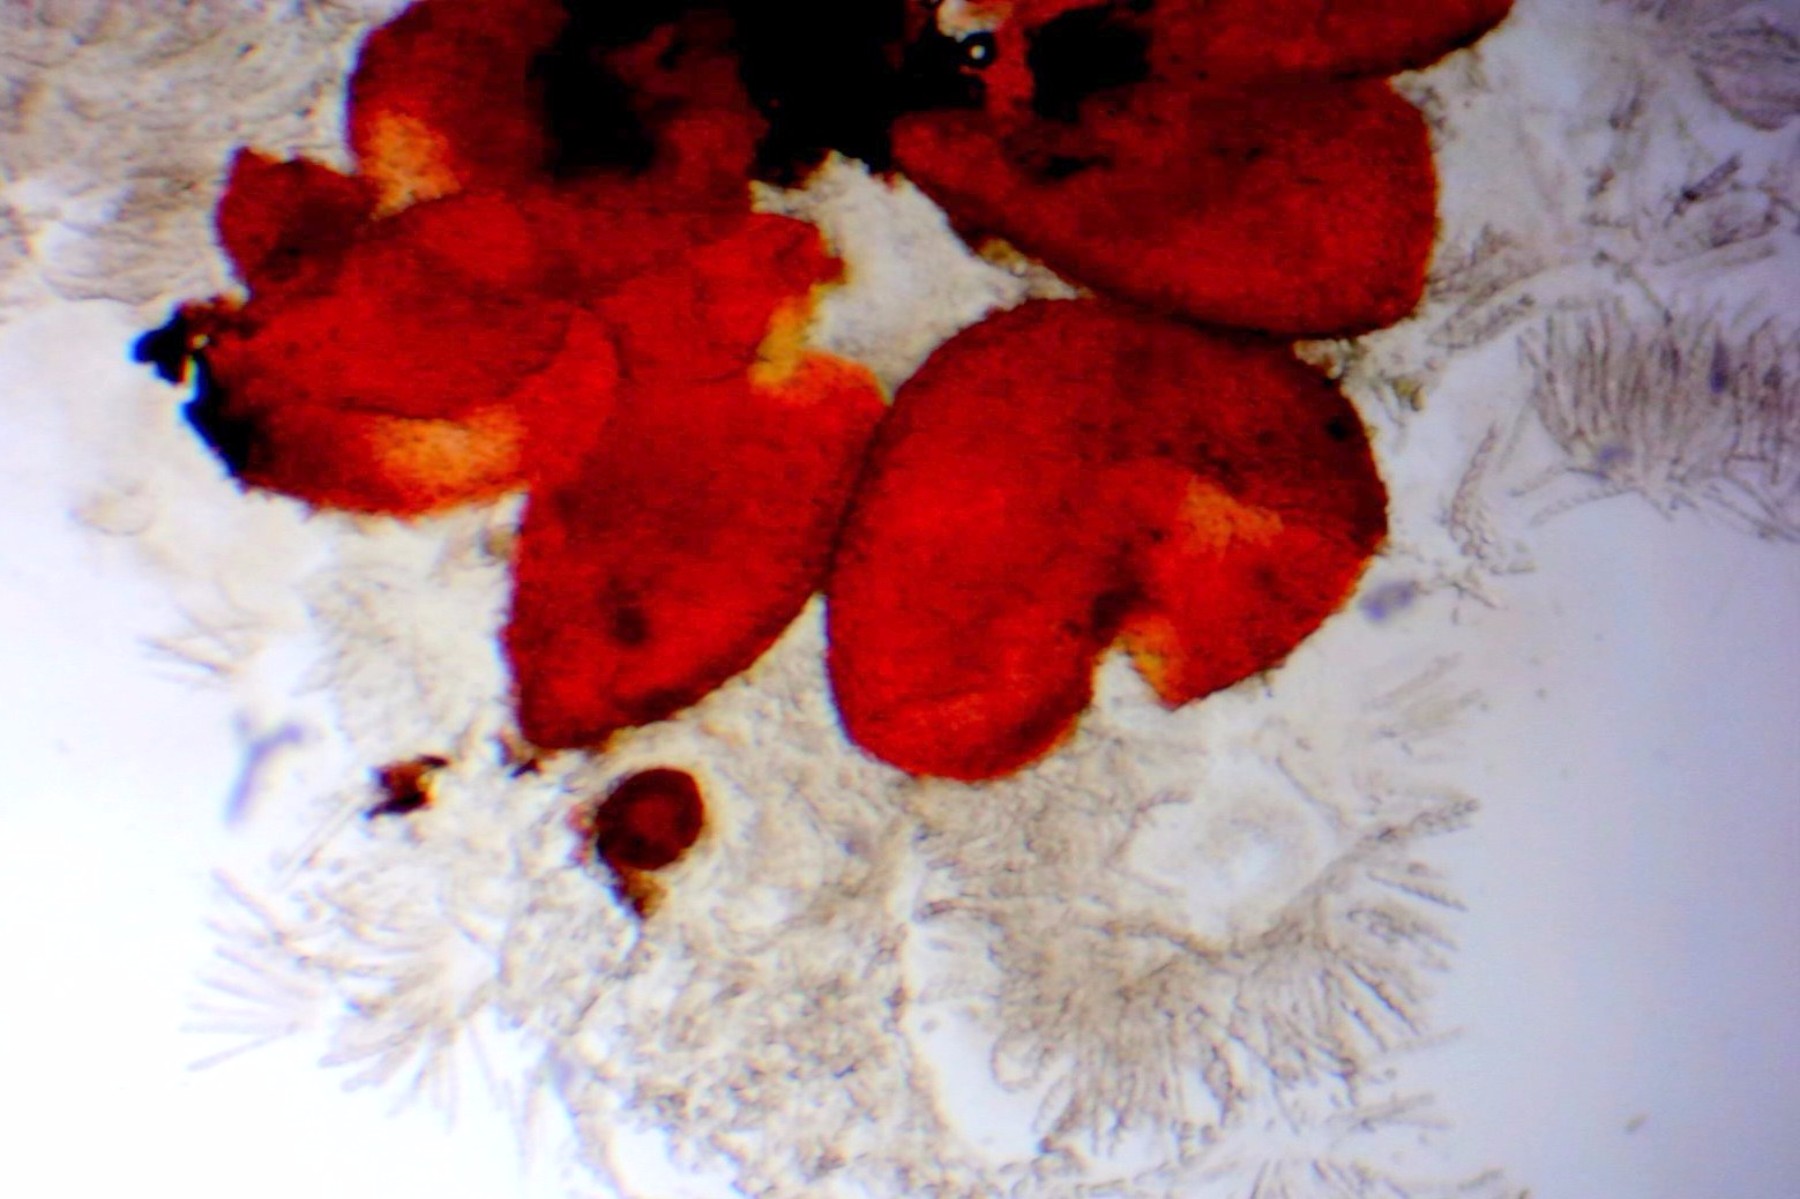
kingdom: Fungi
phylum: Ascomycota
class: Sordariomycetes
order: Hypocreales
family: Nectriaceae
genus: Dialonectria
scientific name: Dialonectria episphaeria
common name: kulskorpe-cinnobersvamp
